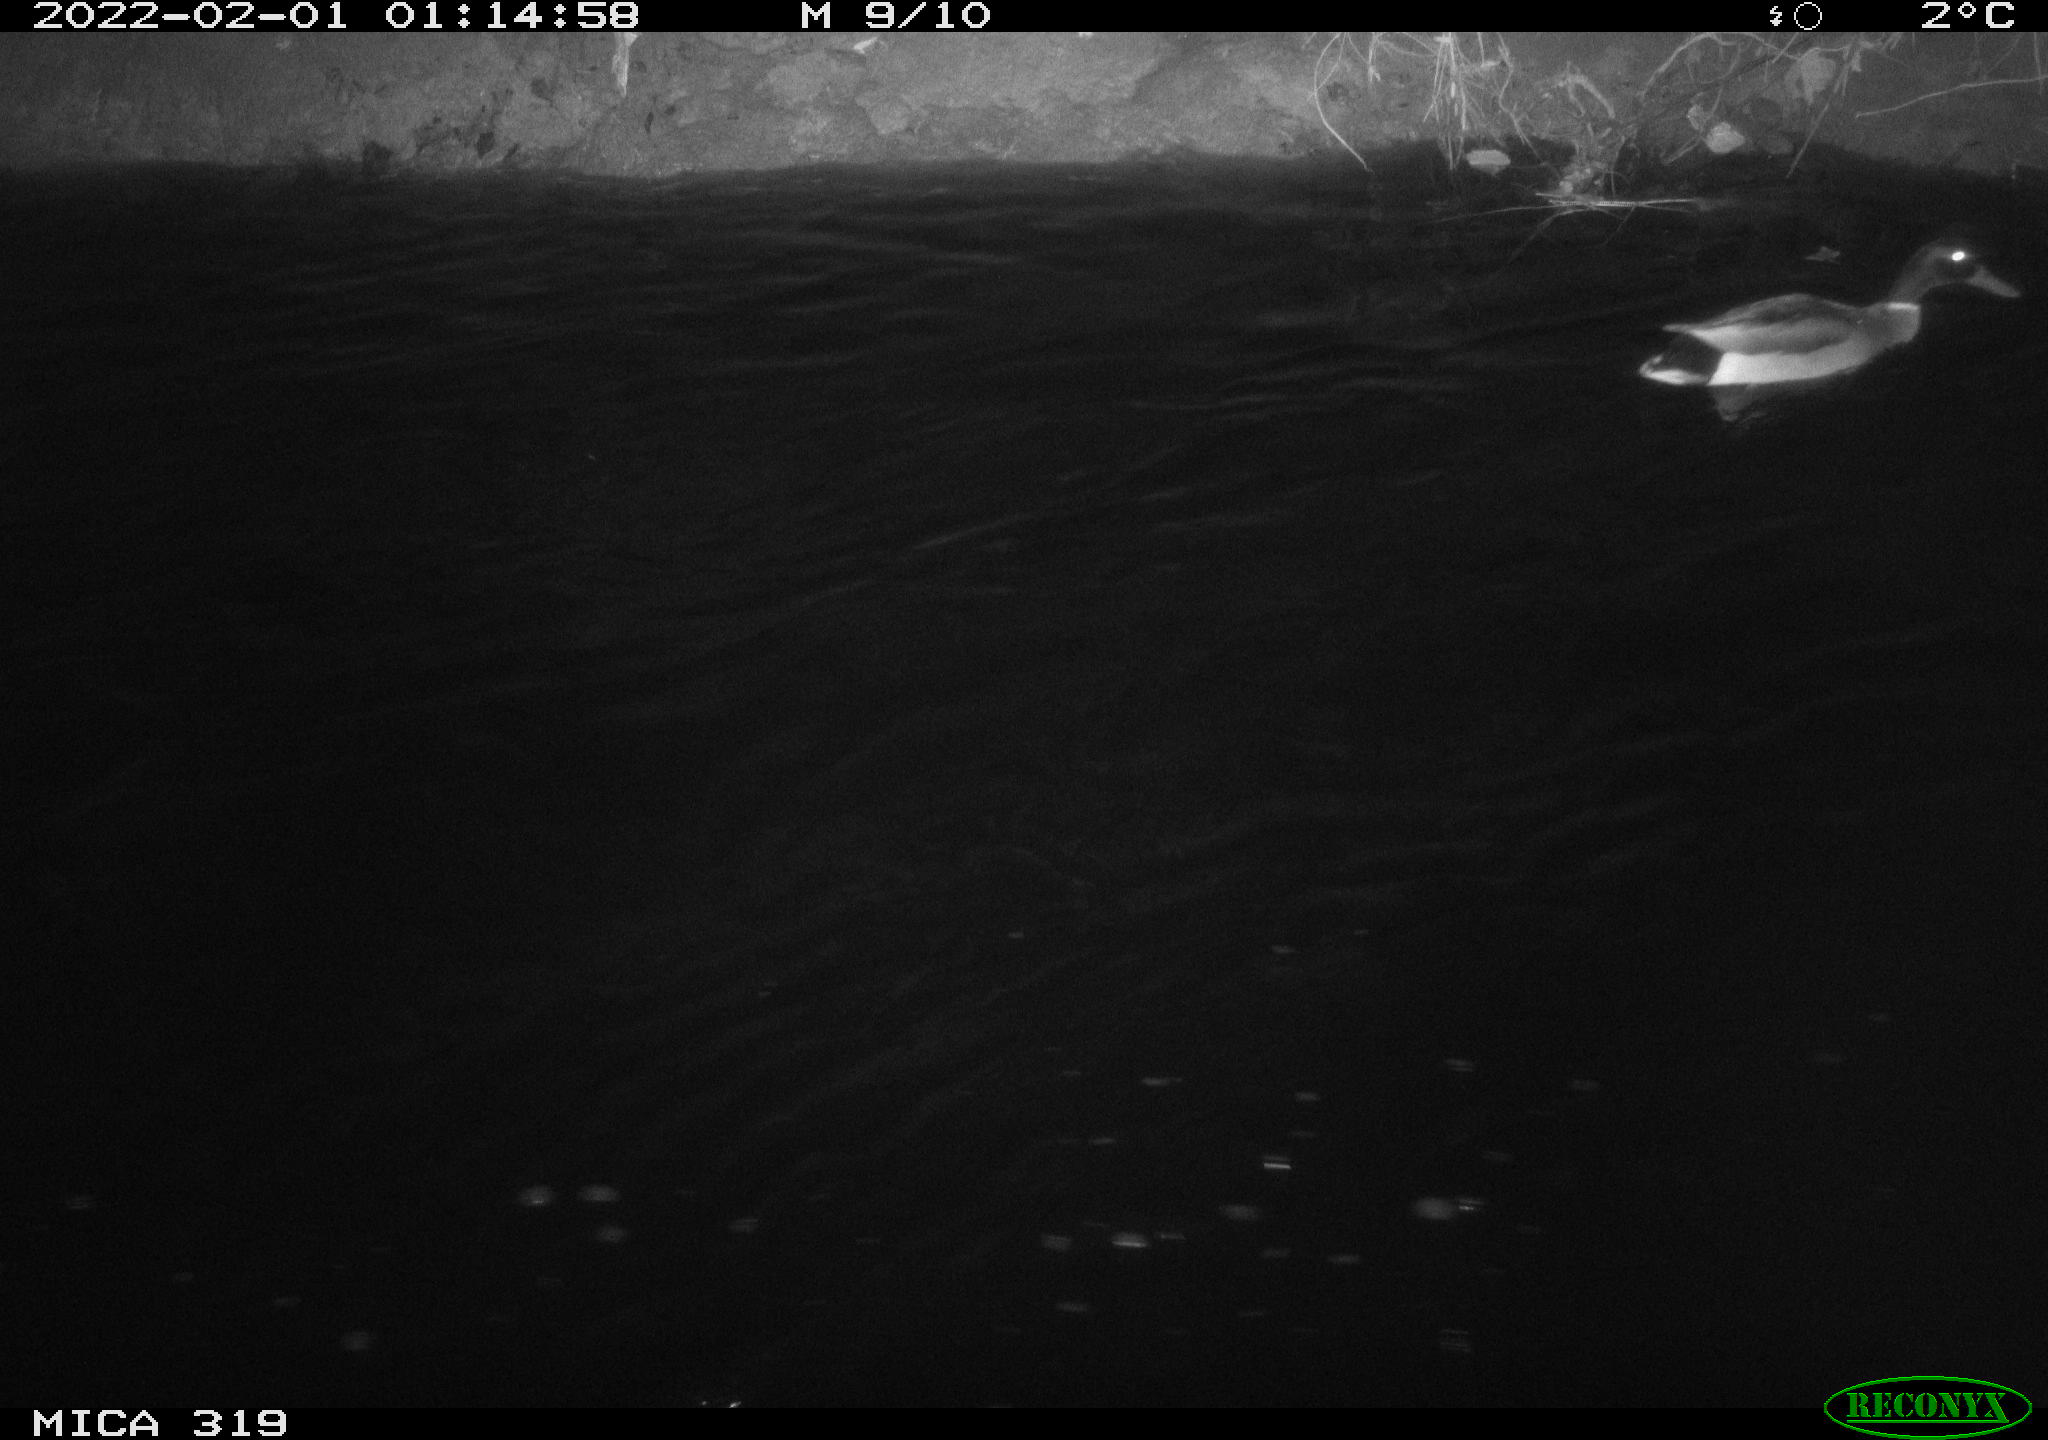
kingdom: Animalia
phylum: Chordata
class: Aves
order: Anseriformes
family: Anatidae
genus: Anas
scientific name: Anas platyrhynchos
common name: Mallard
